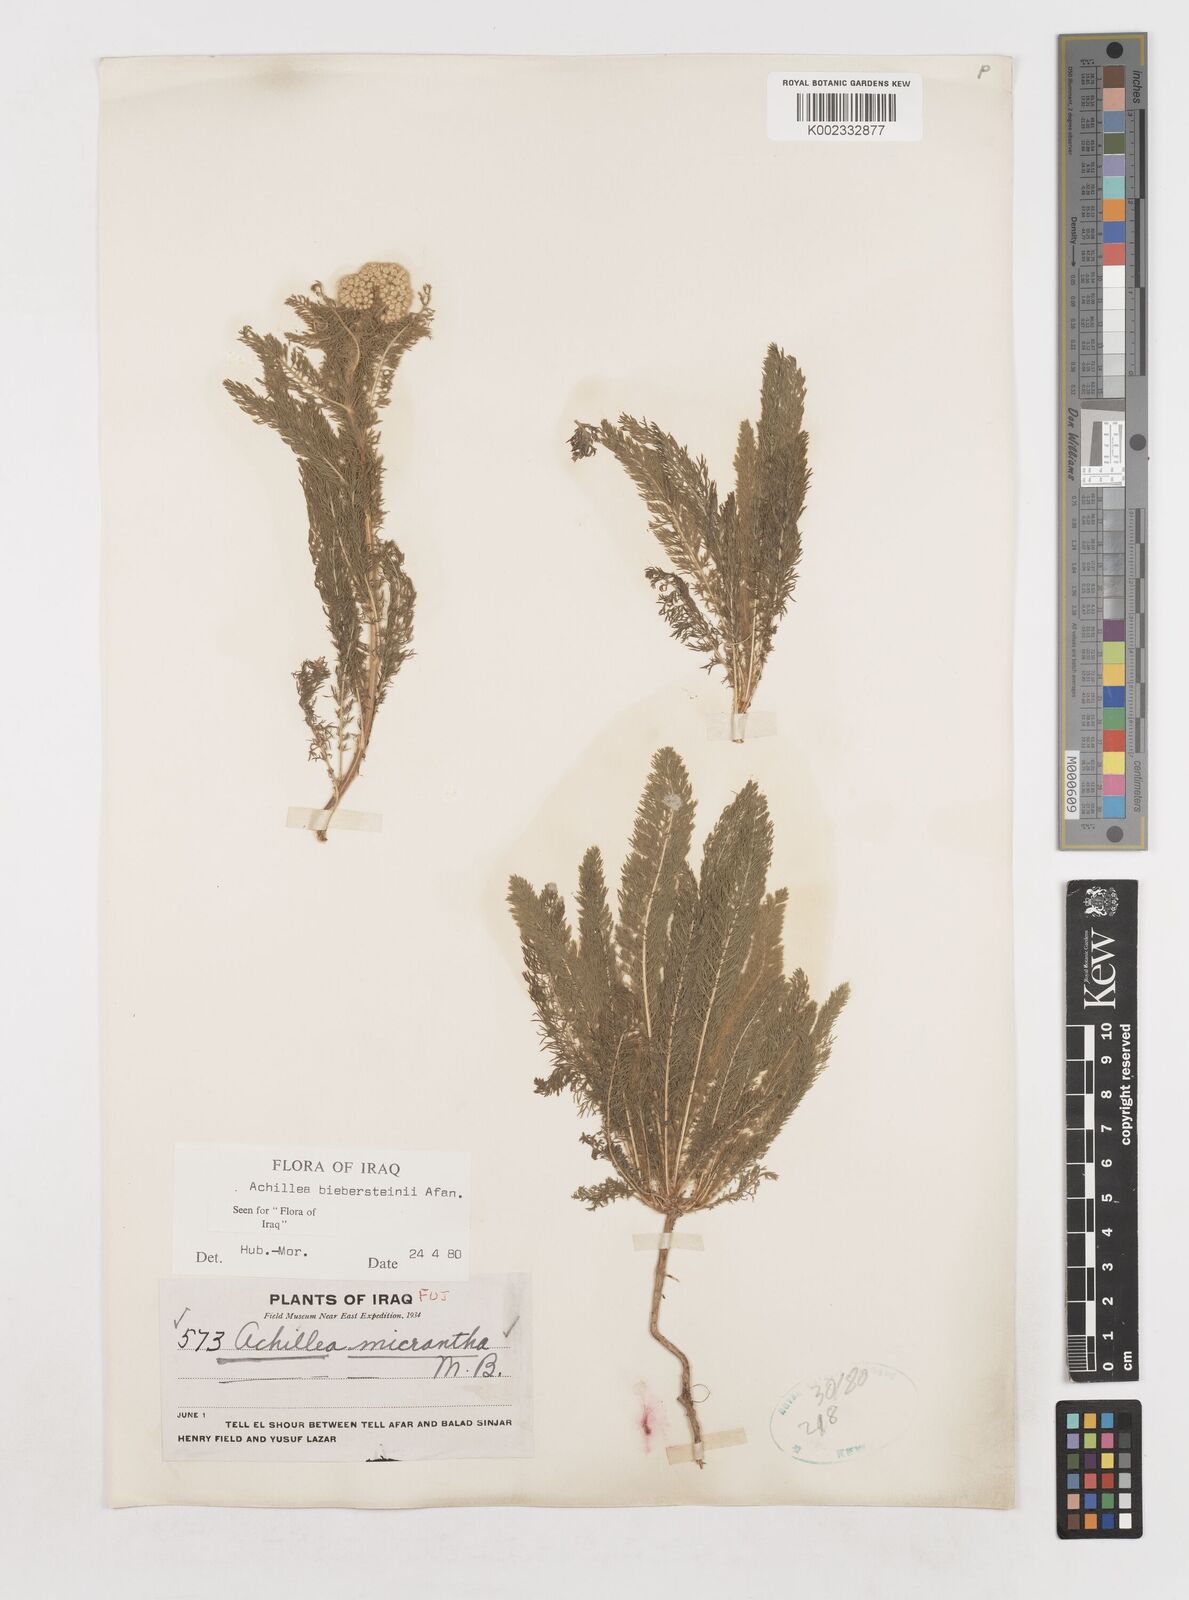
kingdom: Plantae
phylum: Tracheophyta
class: Magnoliopsida
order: Asterales
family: Asteraceae
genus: Achillea
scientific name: Achillea arabica
